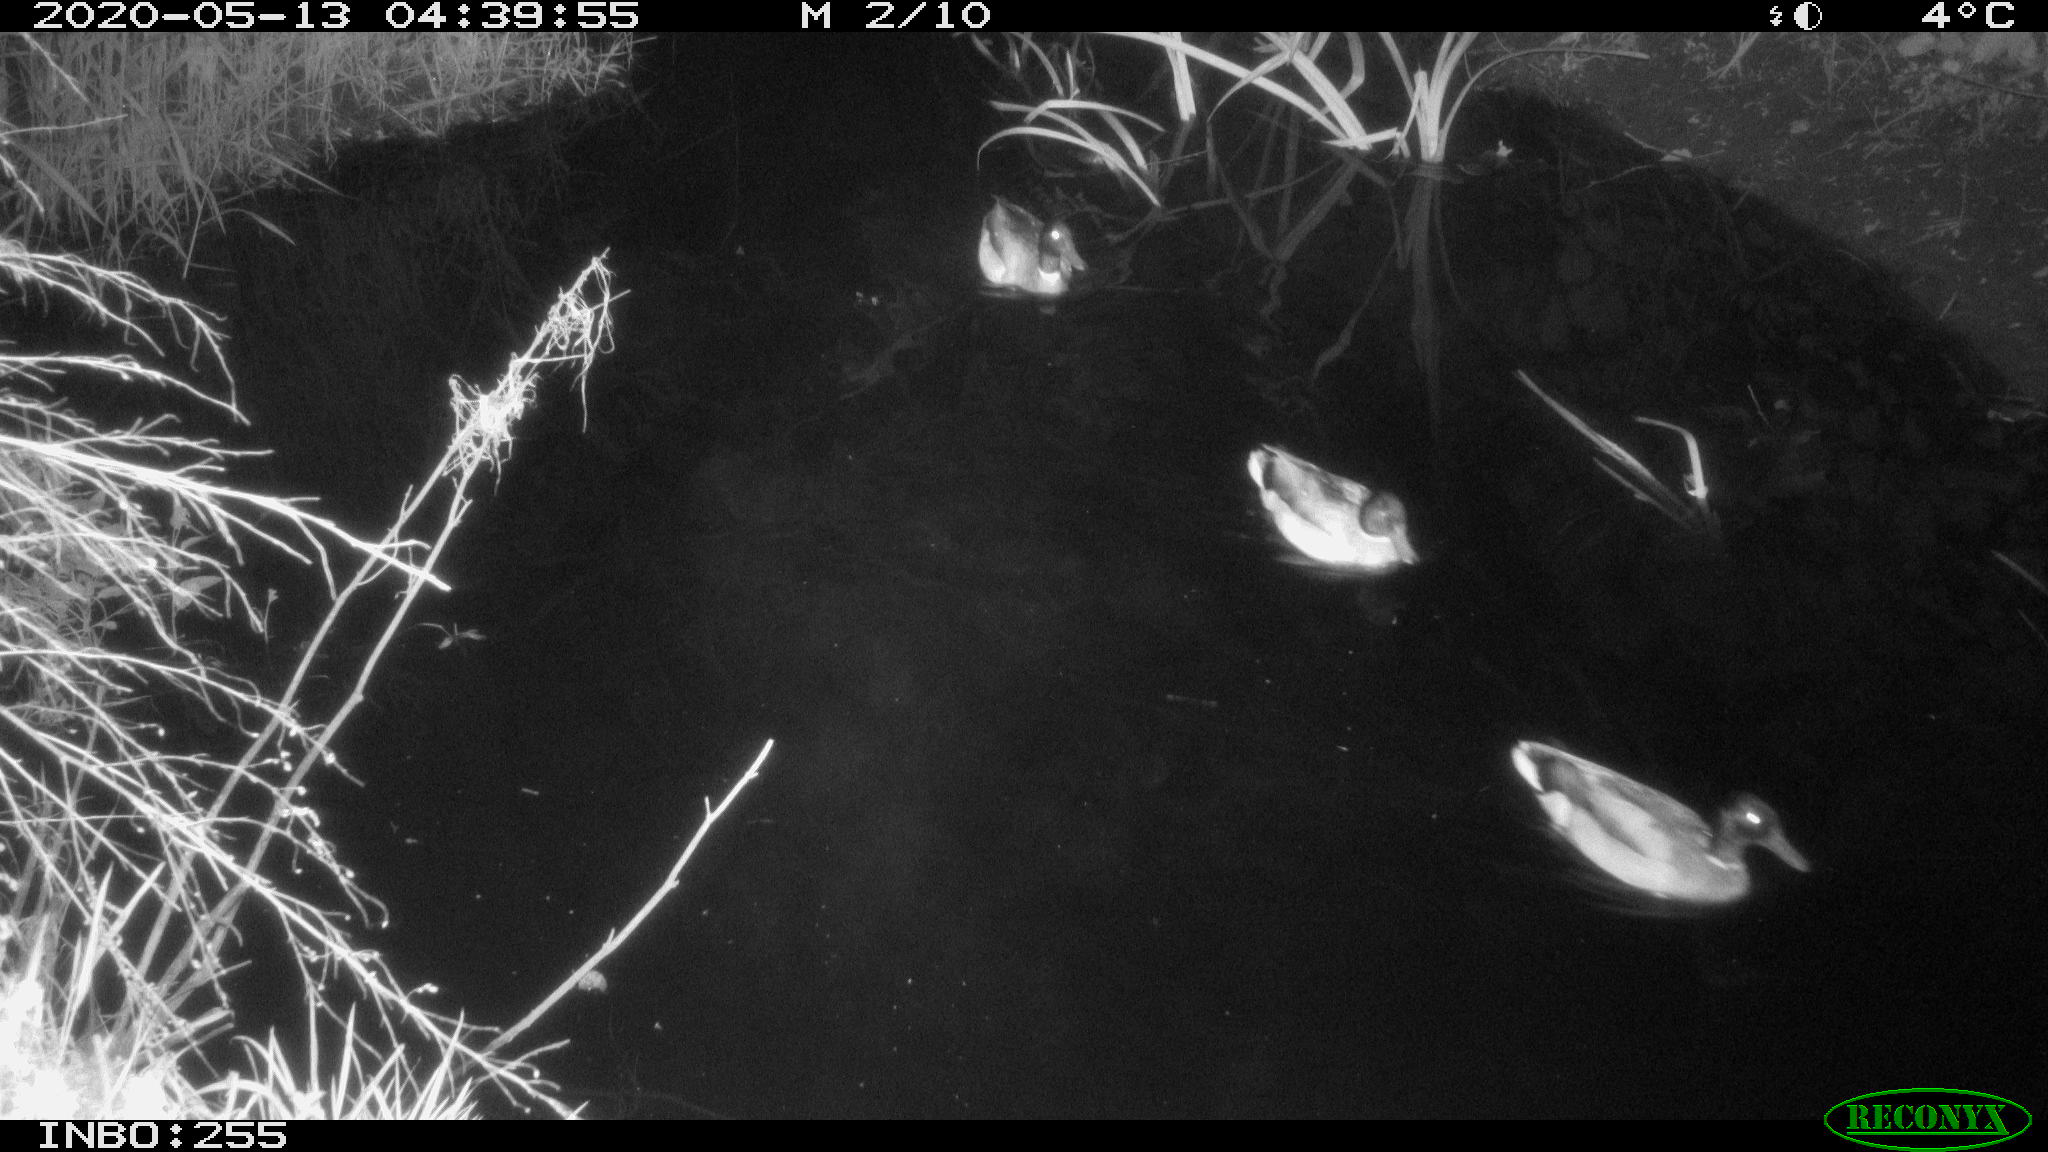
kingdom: Animalia
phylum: Chordata
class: Aves
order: Anseriformes
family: Anatidae
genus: Anas
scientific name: Anas platyrhynchos
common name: Mallard
